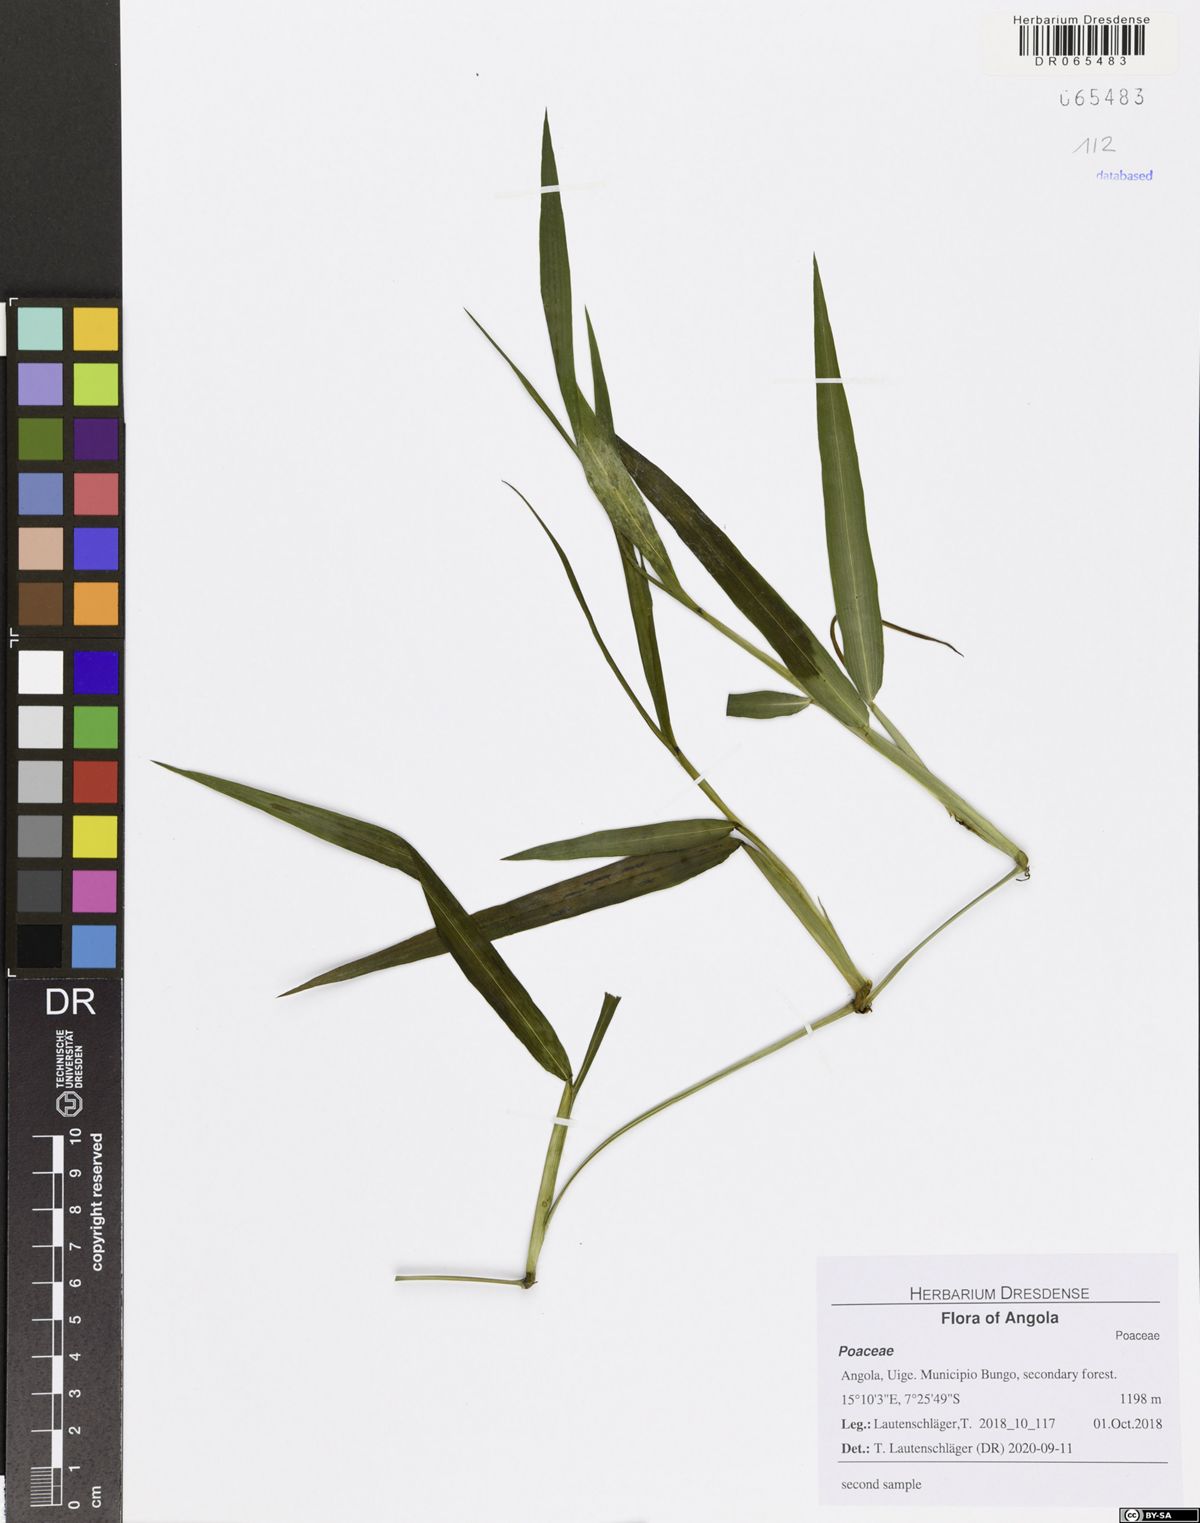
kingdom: Plantae
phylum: Tracheophyta
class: Liliopsida
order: Poales
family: Poaceae
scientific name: Poaceae
